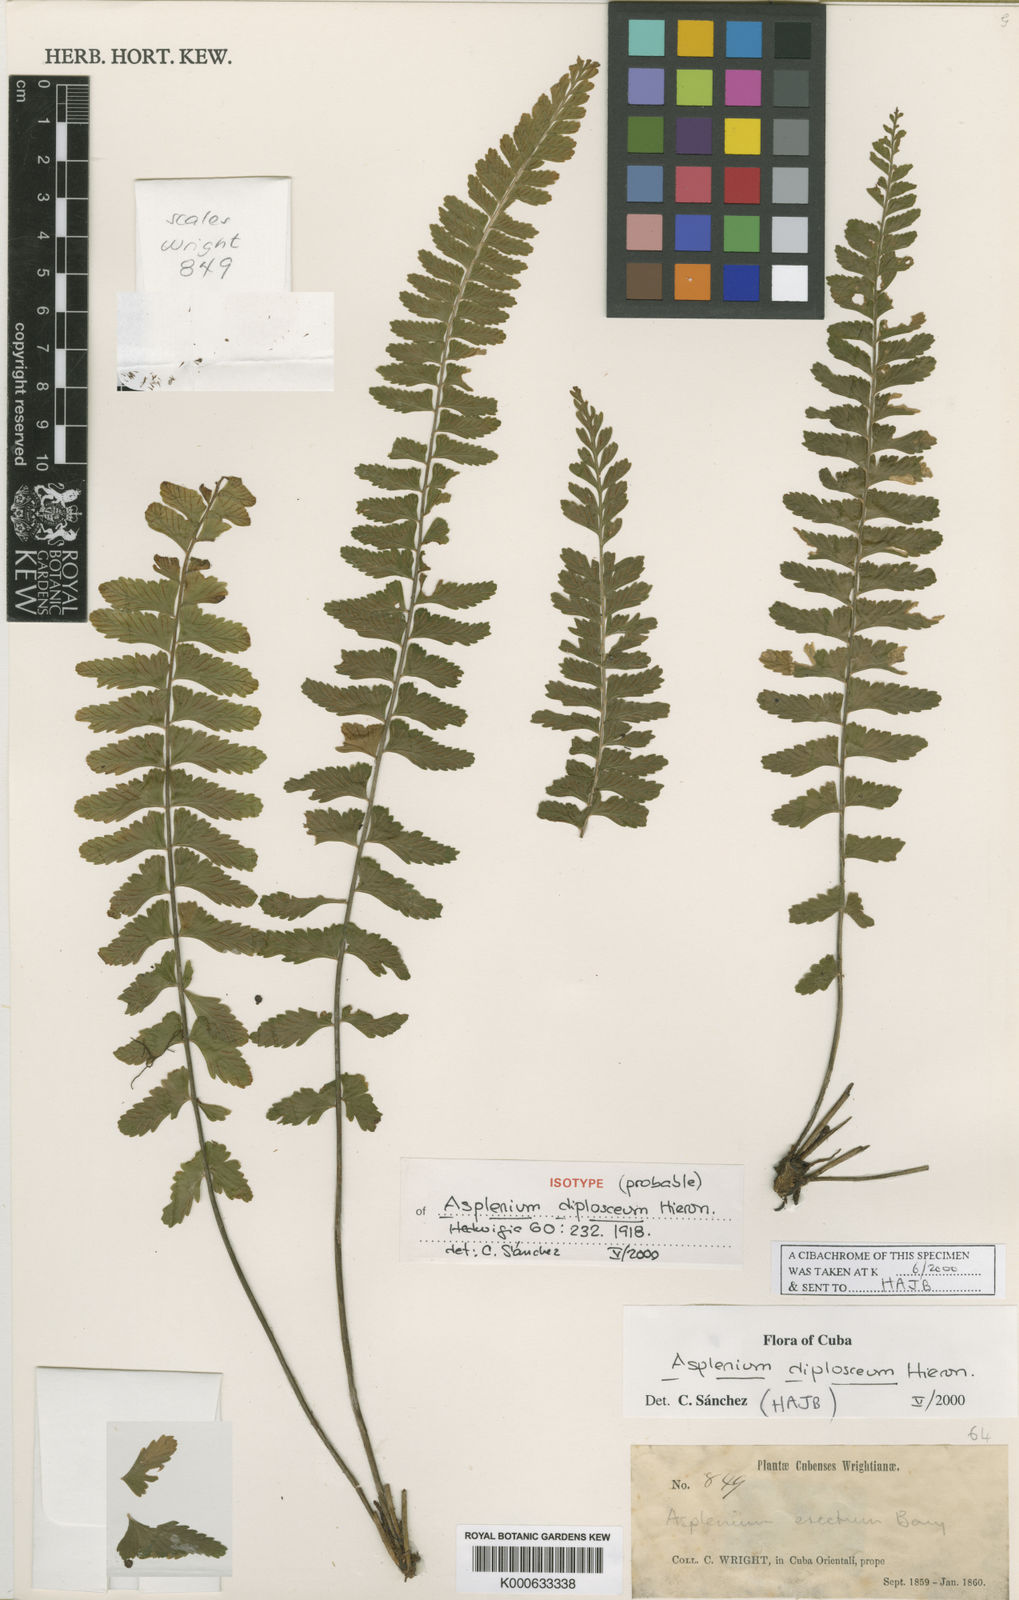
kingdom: Plantae
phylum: Tracheophyta
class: Polypodiopsida
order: Polypodiales
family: Aspleniaceae
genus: Asplenium
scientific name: Asplenium diplosceum
